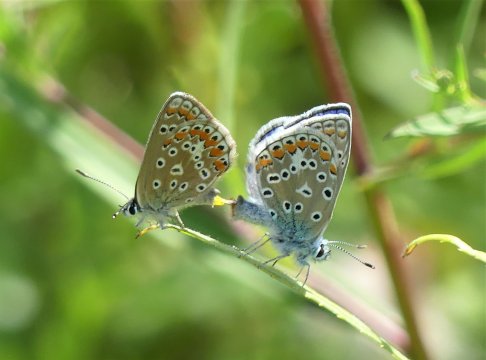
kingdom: Animalia
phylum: Arthropoda
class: Insecta
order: Lepidoptera
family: Lycaenidae
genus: Polyommatus
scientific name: Polyommatus icarus
